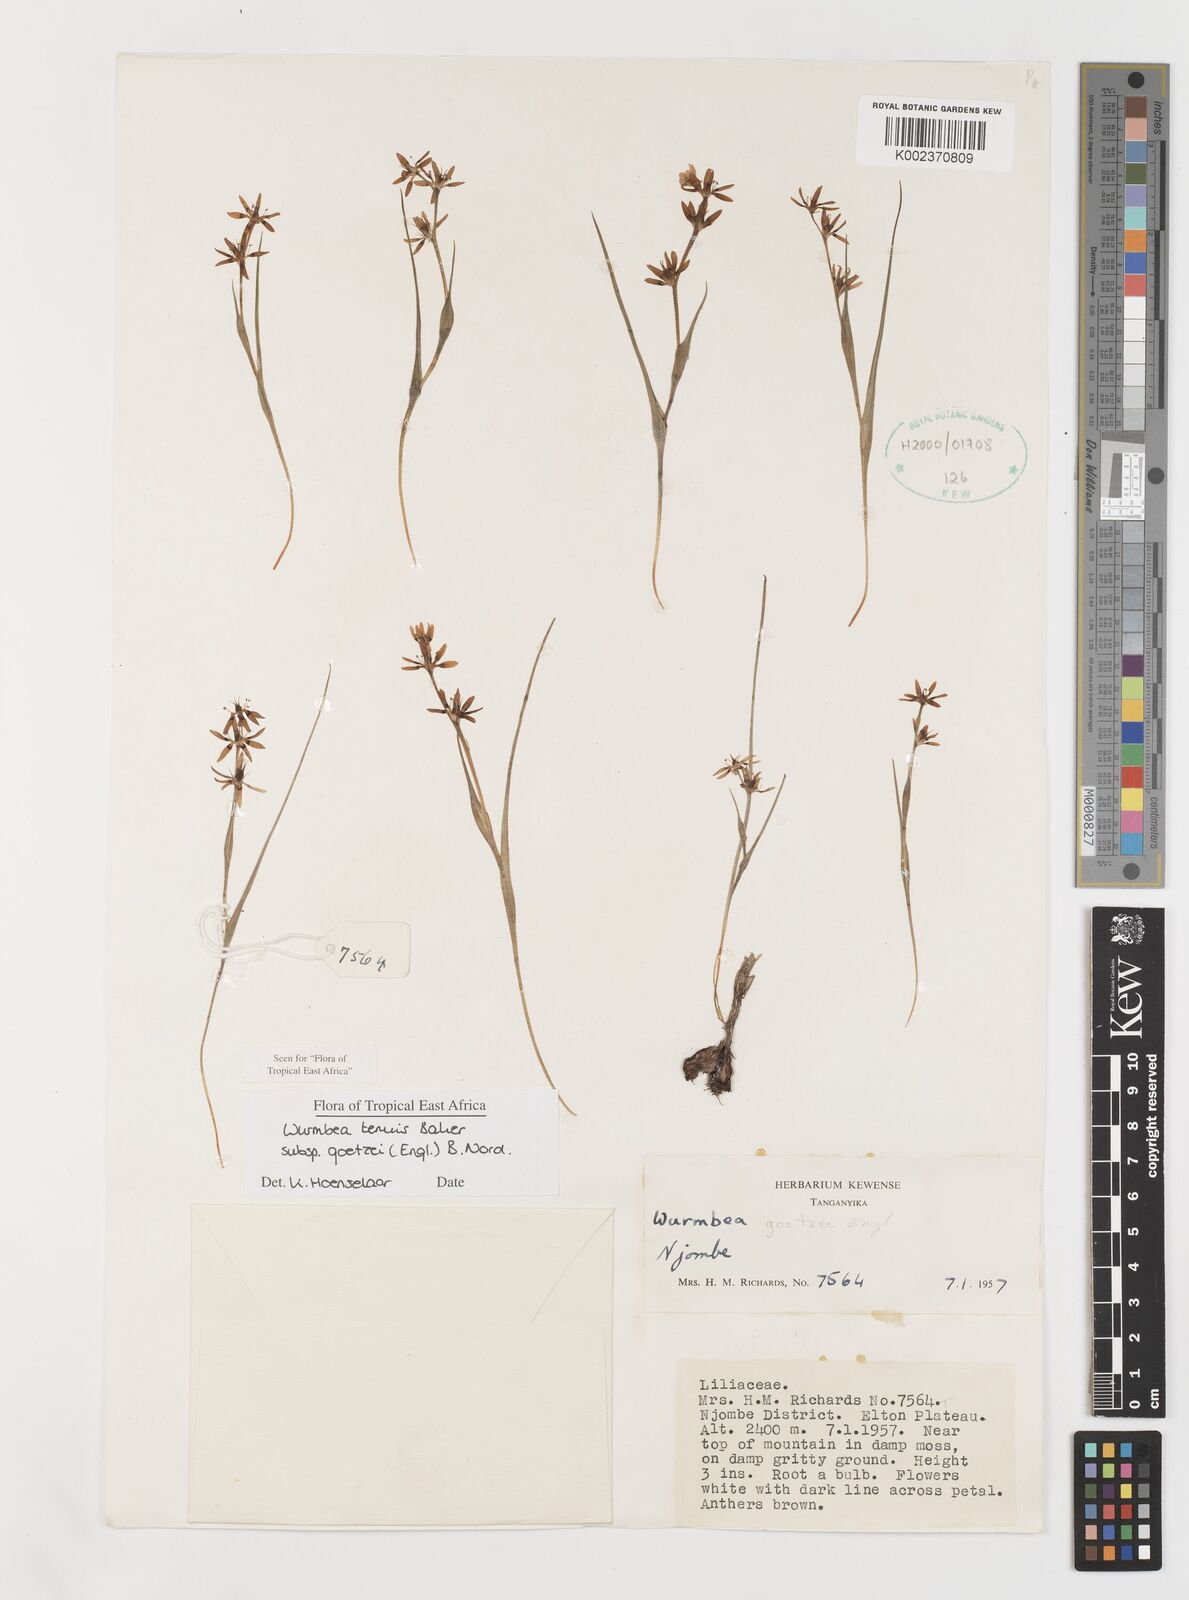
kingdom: Plantae
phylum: Tracheophyta
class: Liliopsida
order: Liliales
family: Colchicaceae
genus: Wurmbea
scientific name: Wurmbea tenuis
